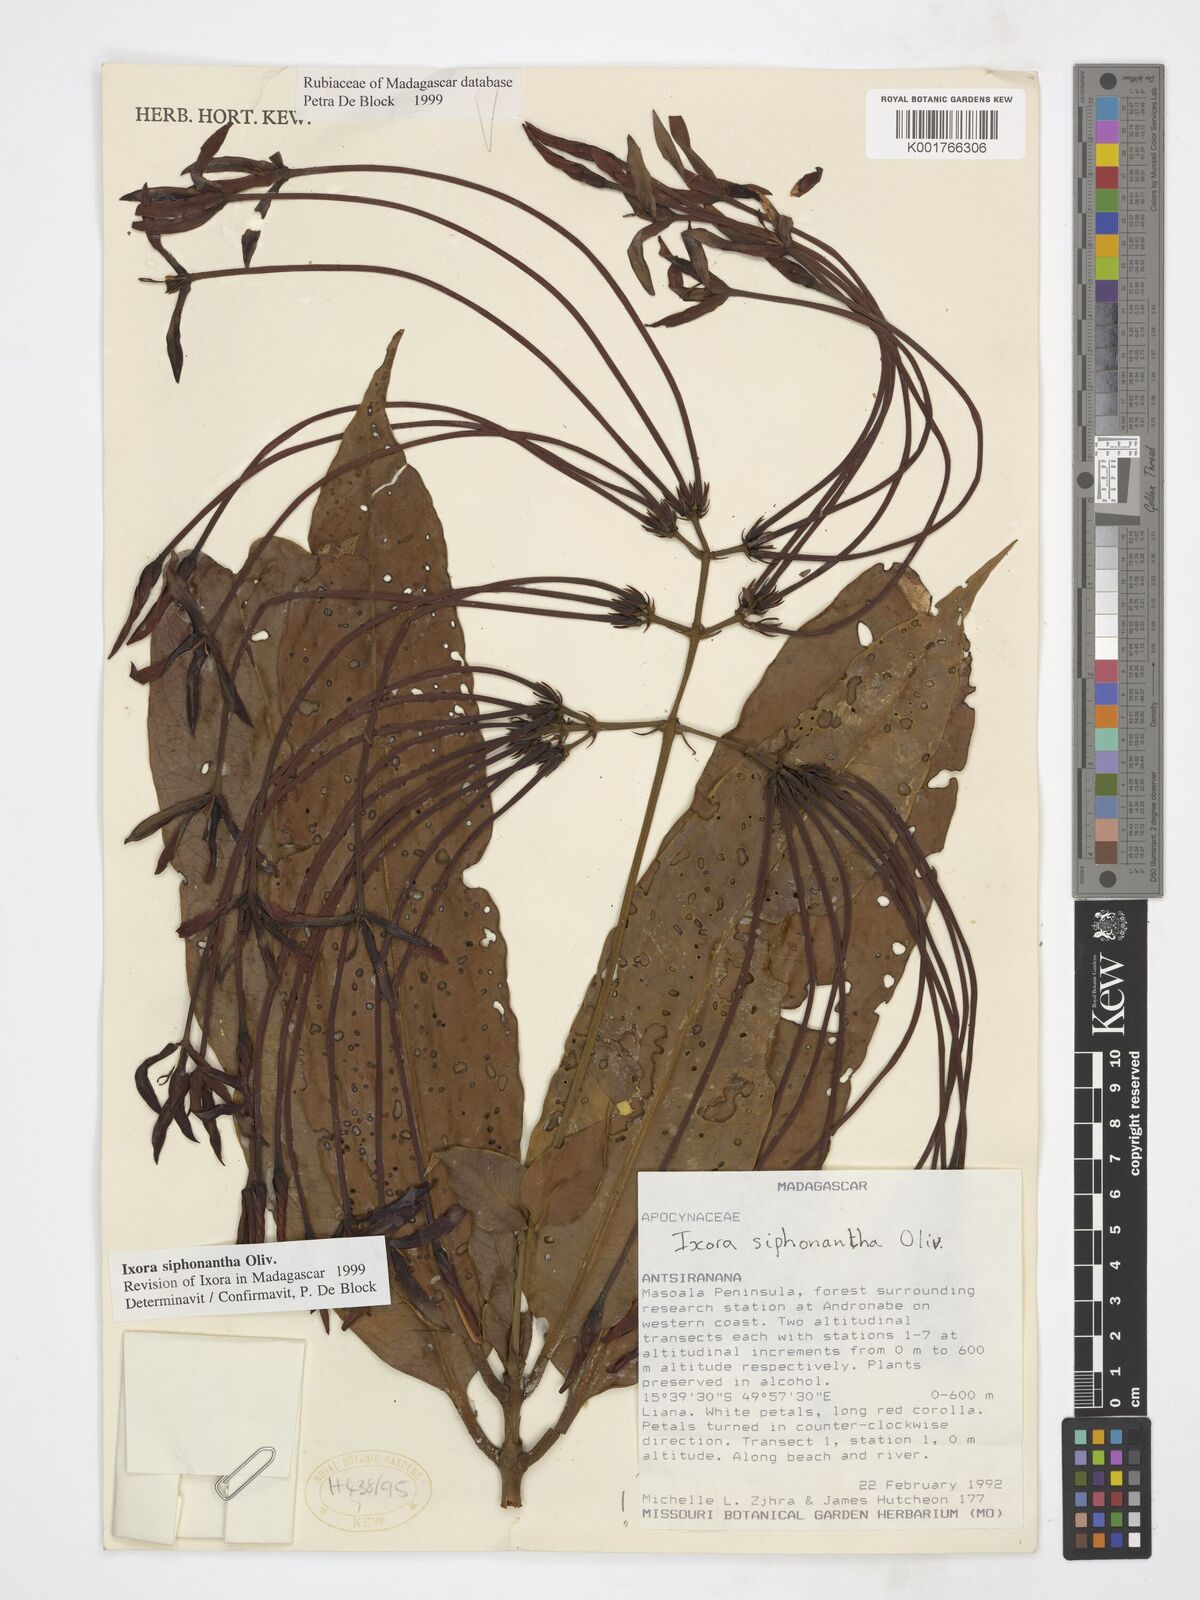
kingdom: Plantae
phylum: Tracheophyta
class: Magnoliopsida
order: Gentianales
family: Rubiaceae
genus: Ixora
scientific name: Ixora siphonantha
